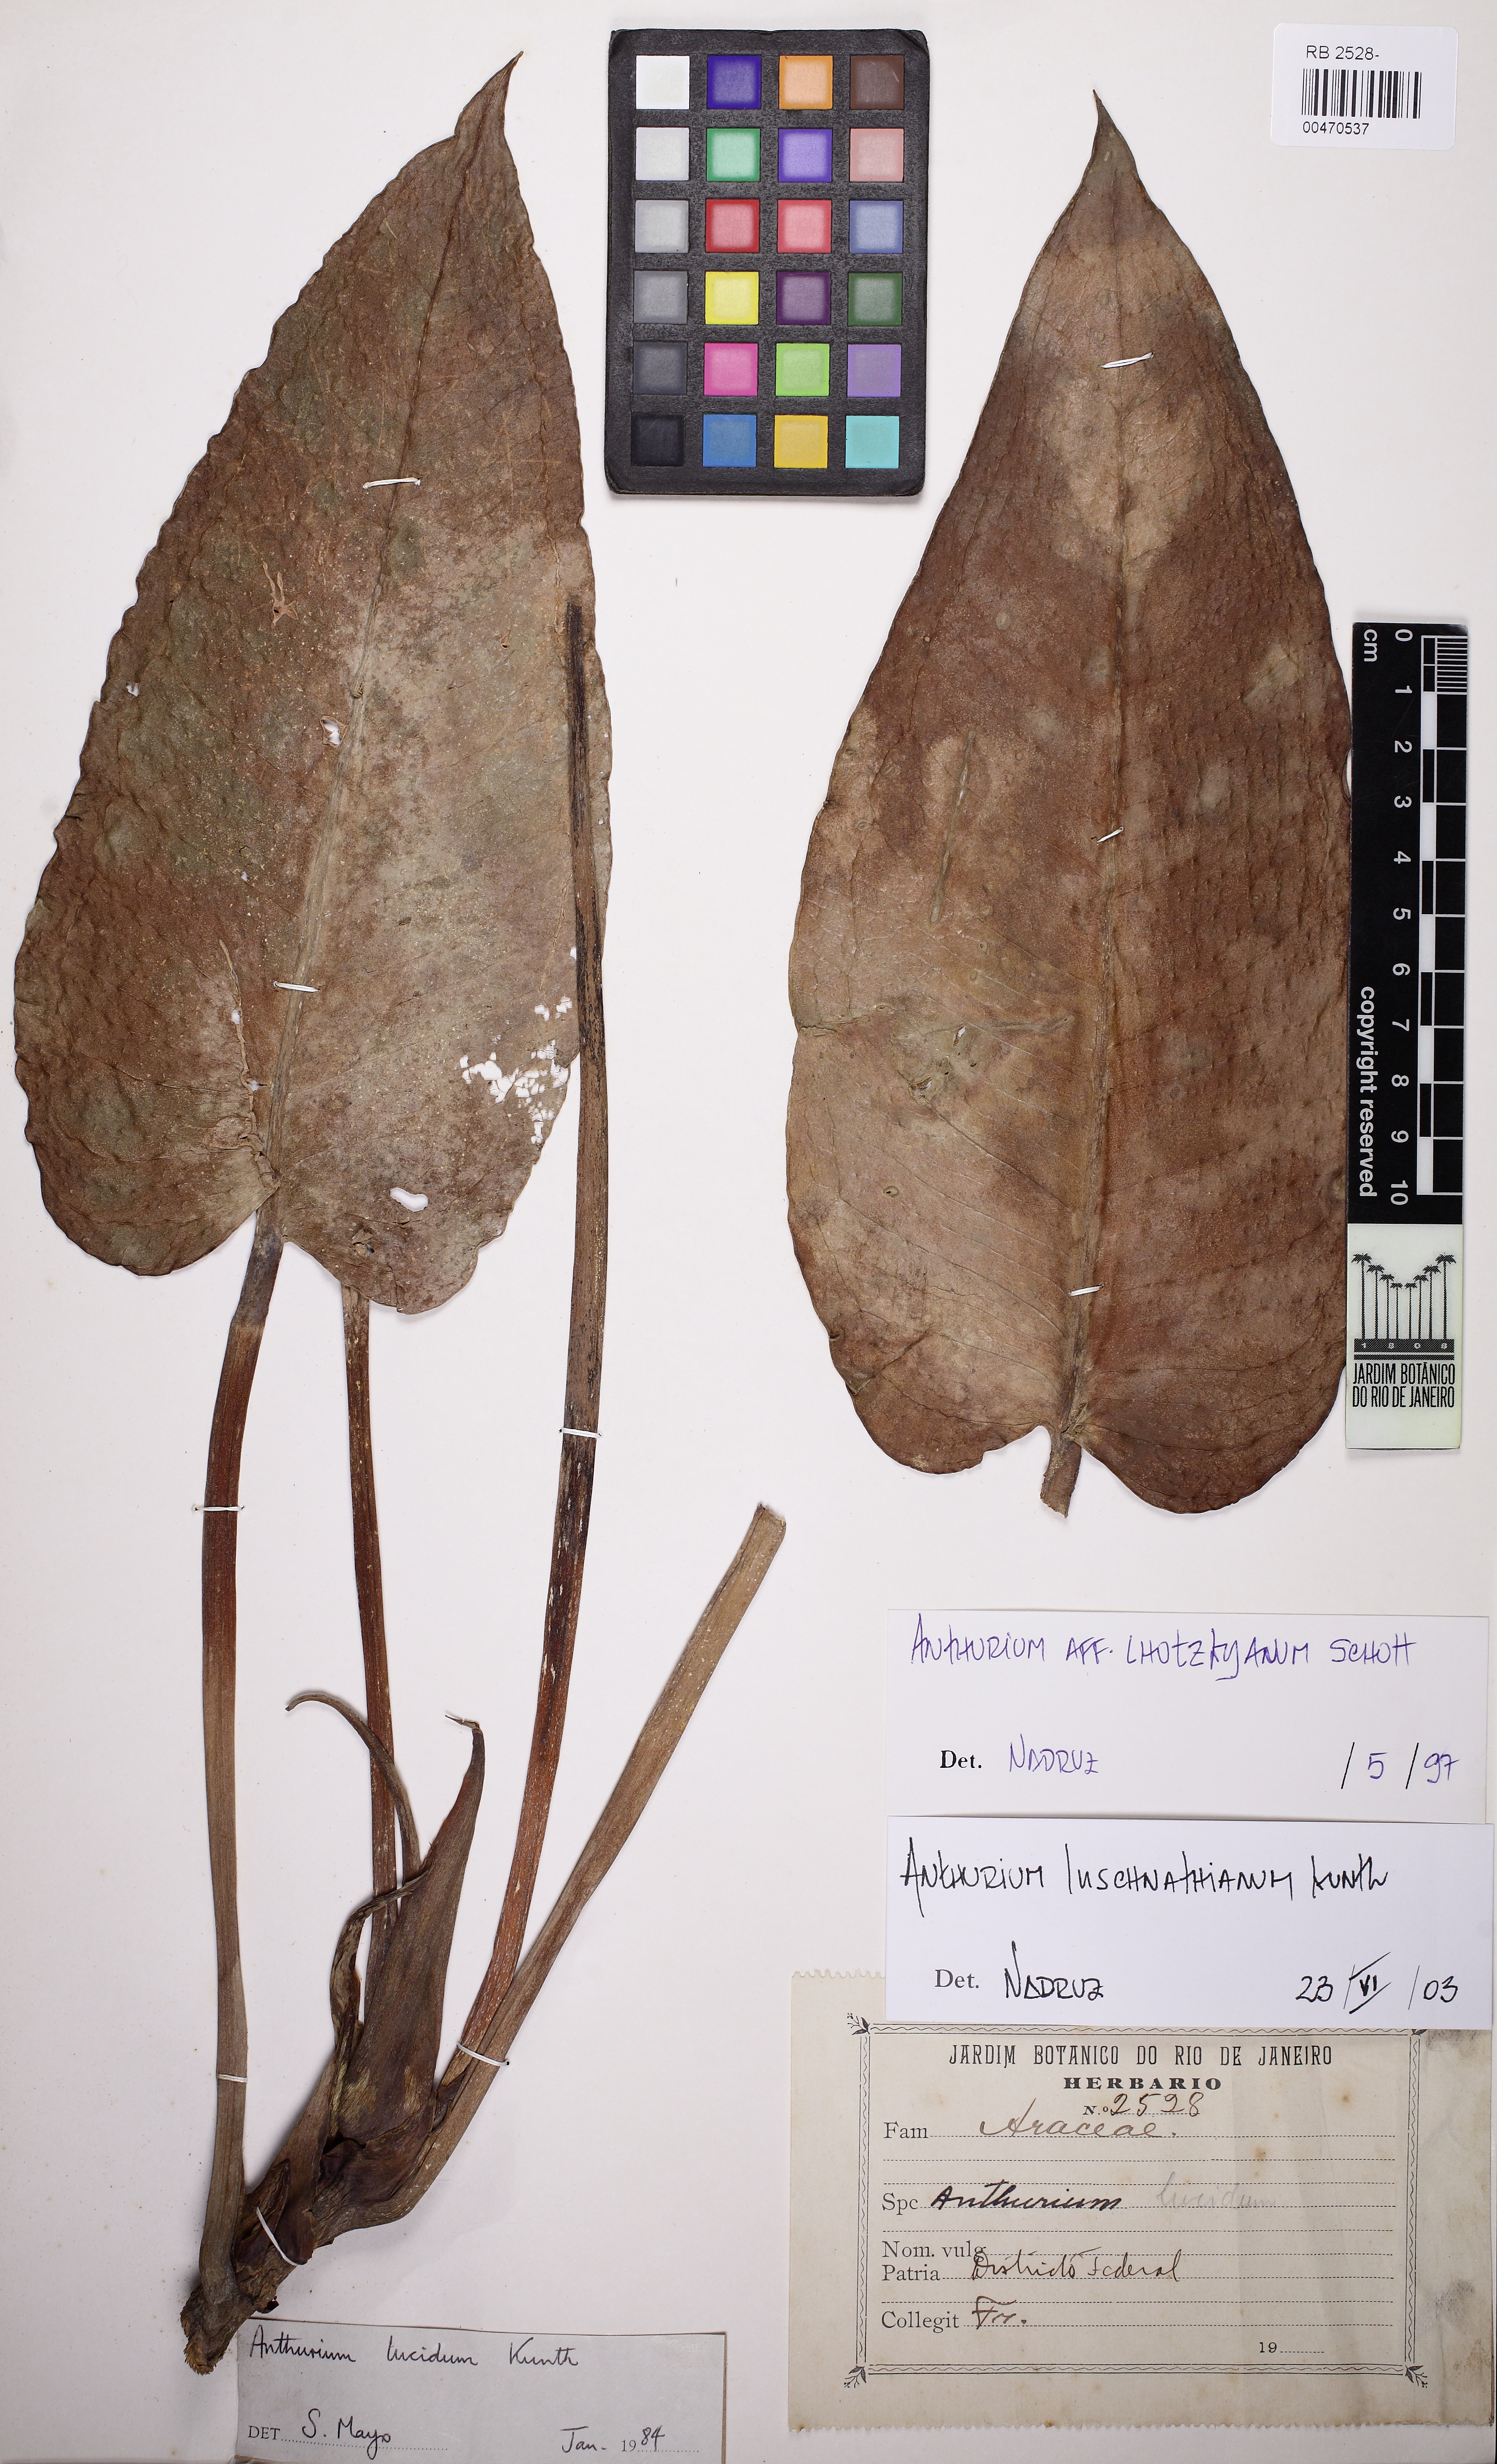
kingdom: Plantae
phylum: Tracheophyta
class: Liliopsida
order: Alismatales
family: Araceae
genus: Anthurium
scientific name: Anthurium luschnathianum
